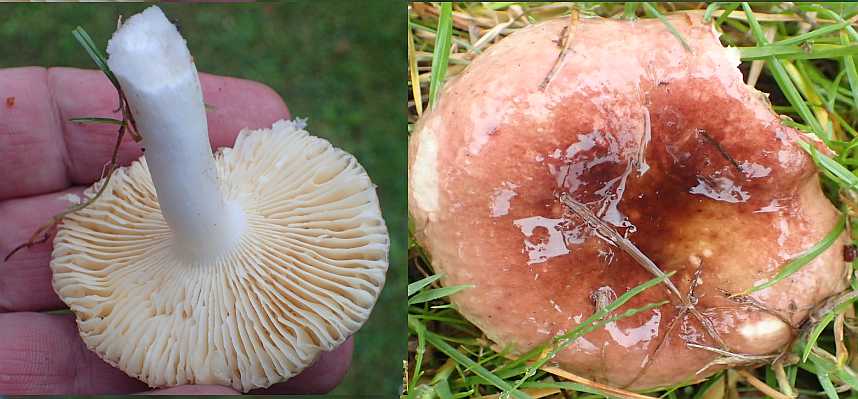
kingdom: Fungi
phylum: Basidiomycota
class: Agaricomycetes
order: Russulales
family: Russulaceae
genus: Russula
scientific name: Russula cessans
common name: fyrre-skørhat
